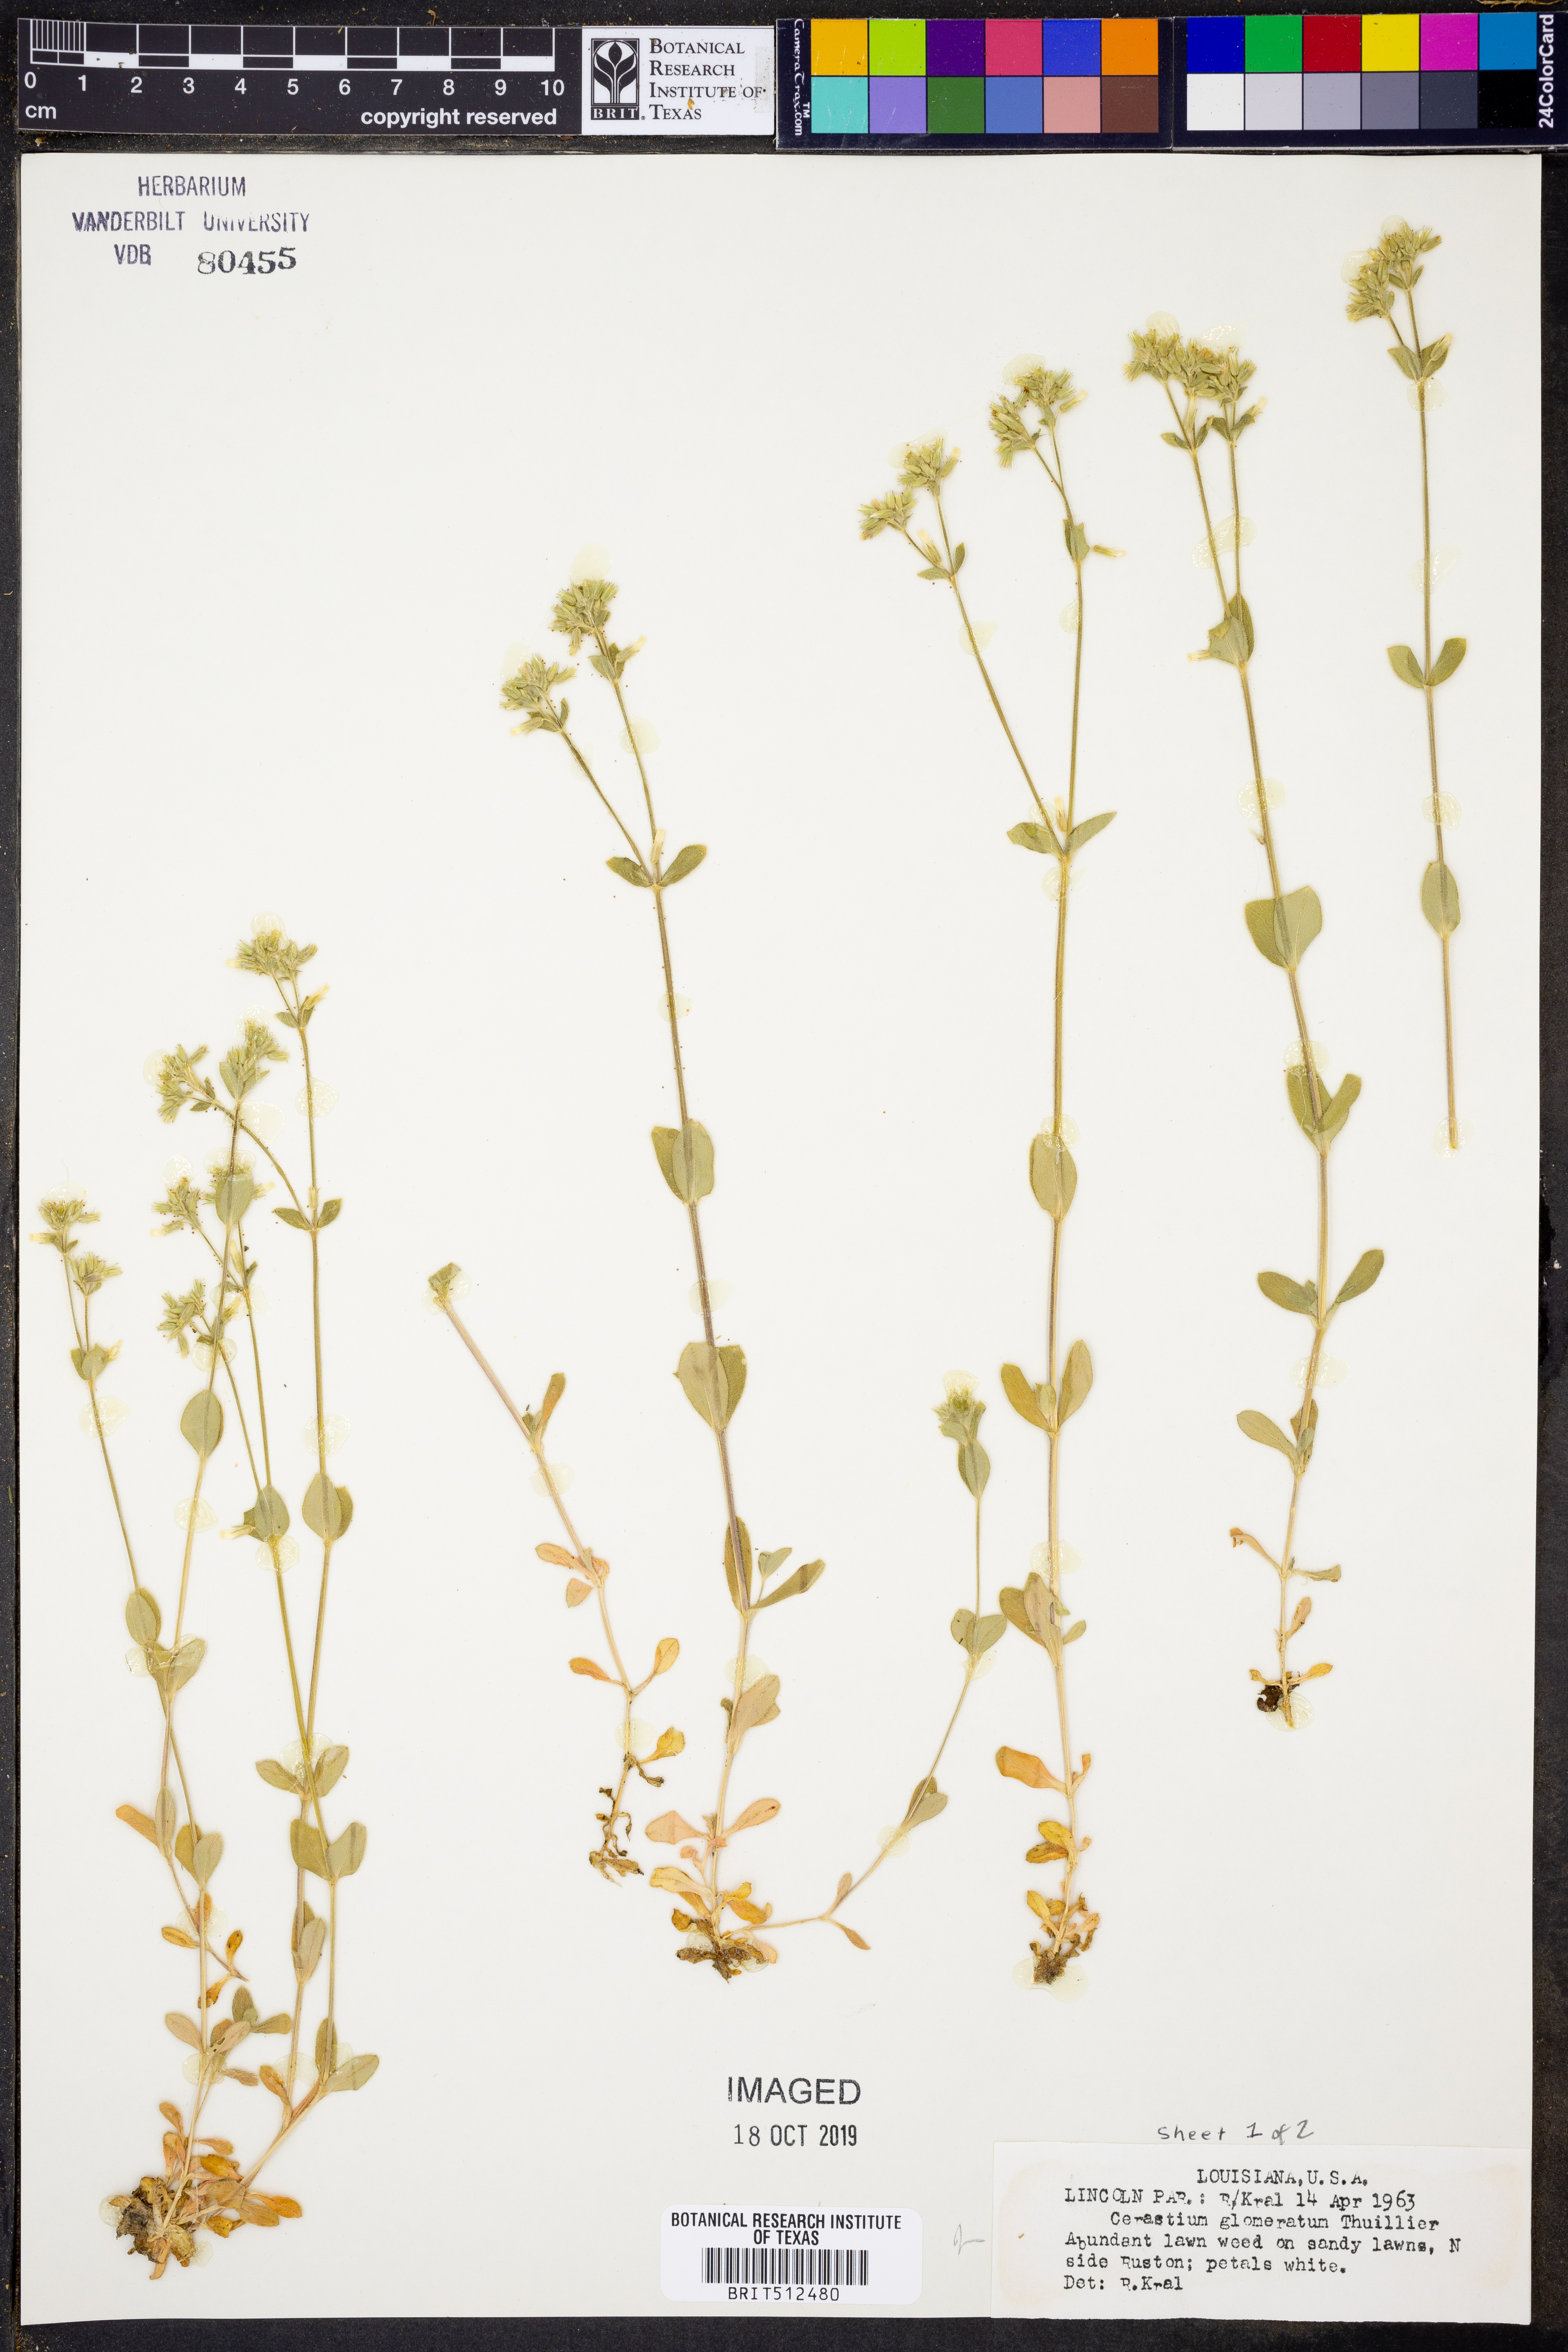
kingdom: Plantae
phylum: Tracheophyta
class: Magnoliopsida
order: Caryophyllales
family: Caryophyllaceae
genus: Cerastium
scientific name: Cerastium glomeratum
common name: Sticky chickweed
